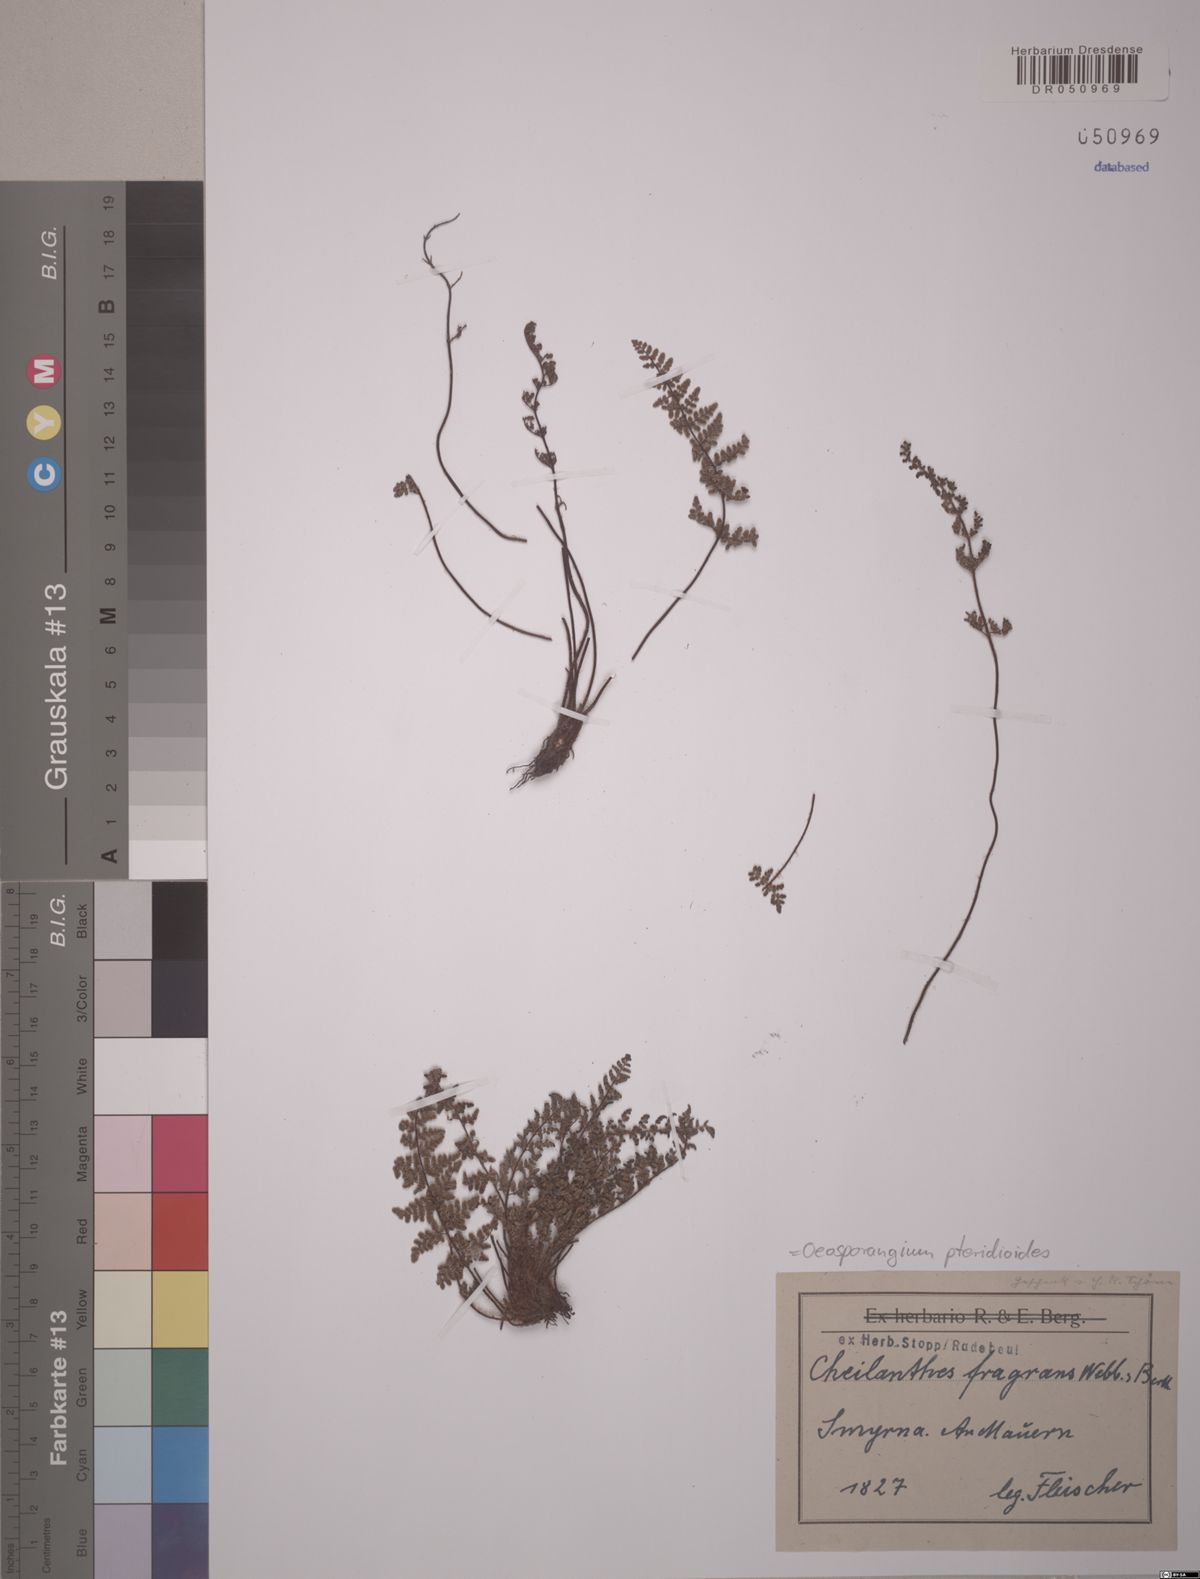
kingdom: Plantae
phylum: Tracheophyta
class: Polypodiopsida
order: Polypodiales
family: Pteridaceae
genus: Oeosporangium
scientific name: Oeosporangium pteridioides
